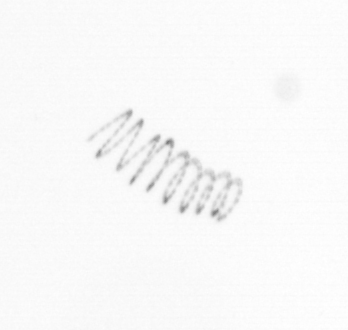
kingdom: Chromista
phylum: Ochrophyta
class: Bacillariophyceae
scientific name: Bacillariophyceae
